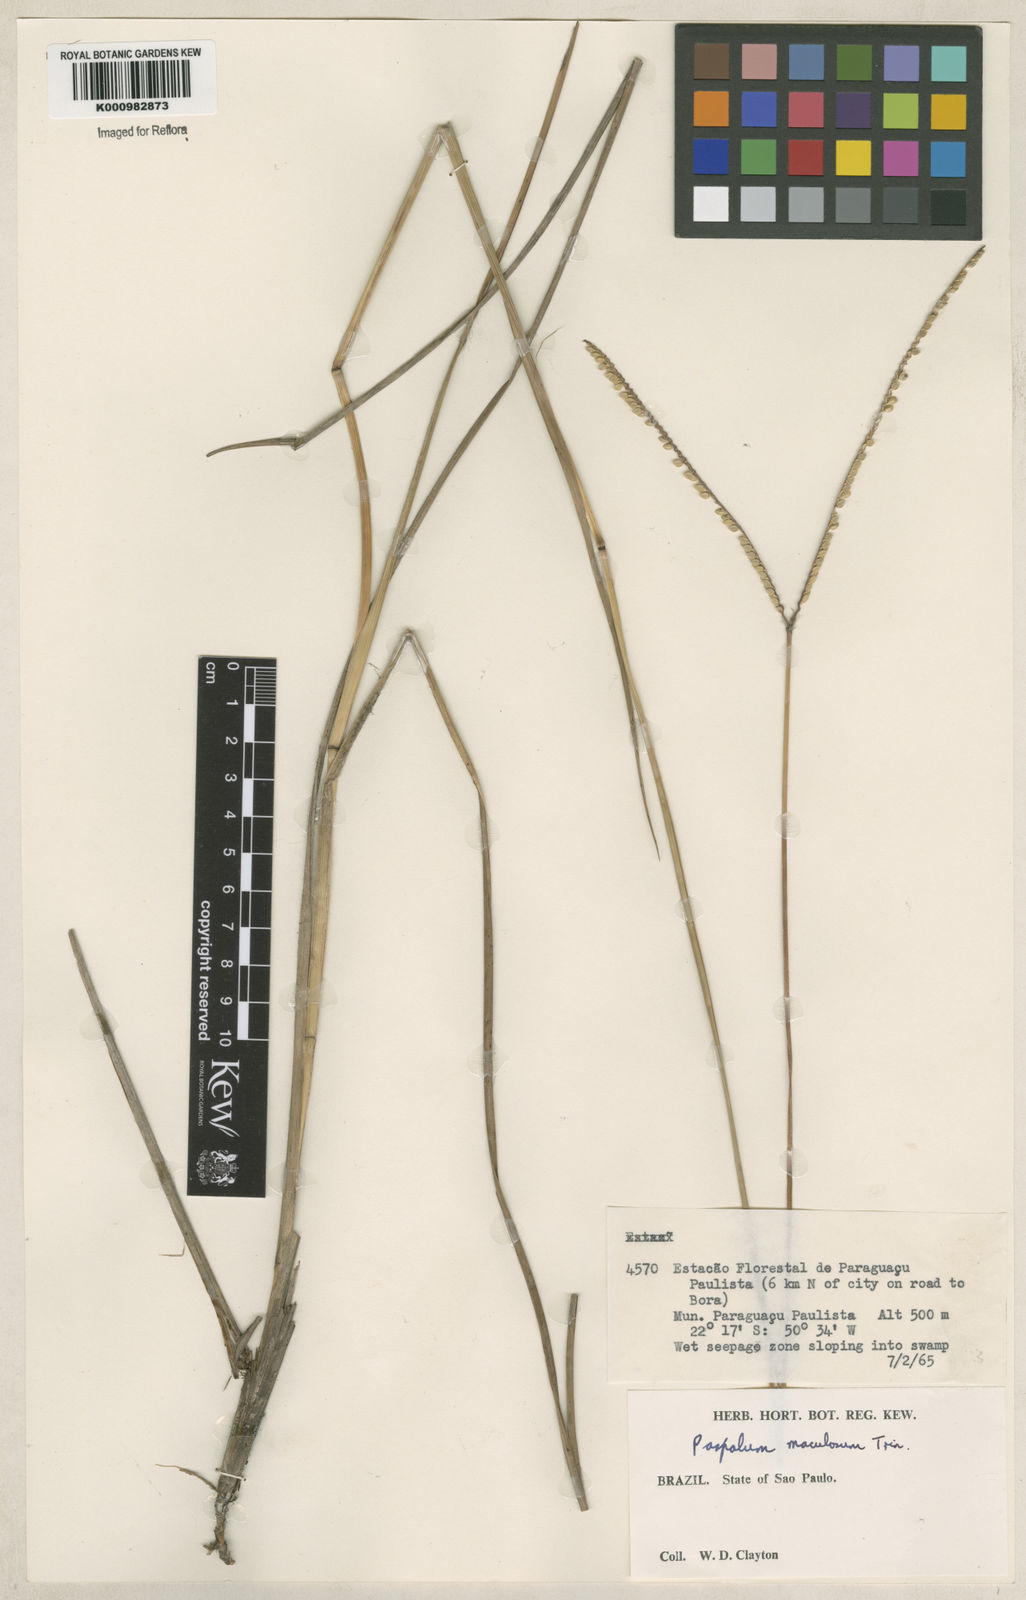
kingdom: Plantae
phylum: Tracheophyta
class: Liliopsida
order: Poales
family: Poaceae
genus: Paspalum
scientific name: Paspalum maculosum
